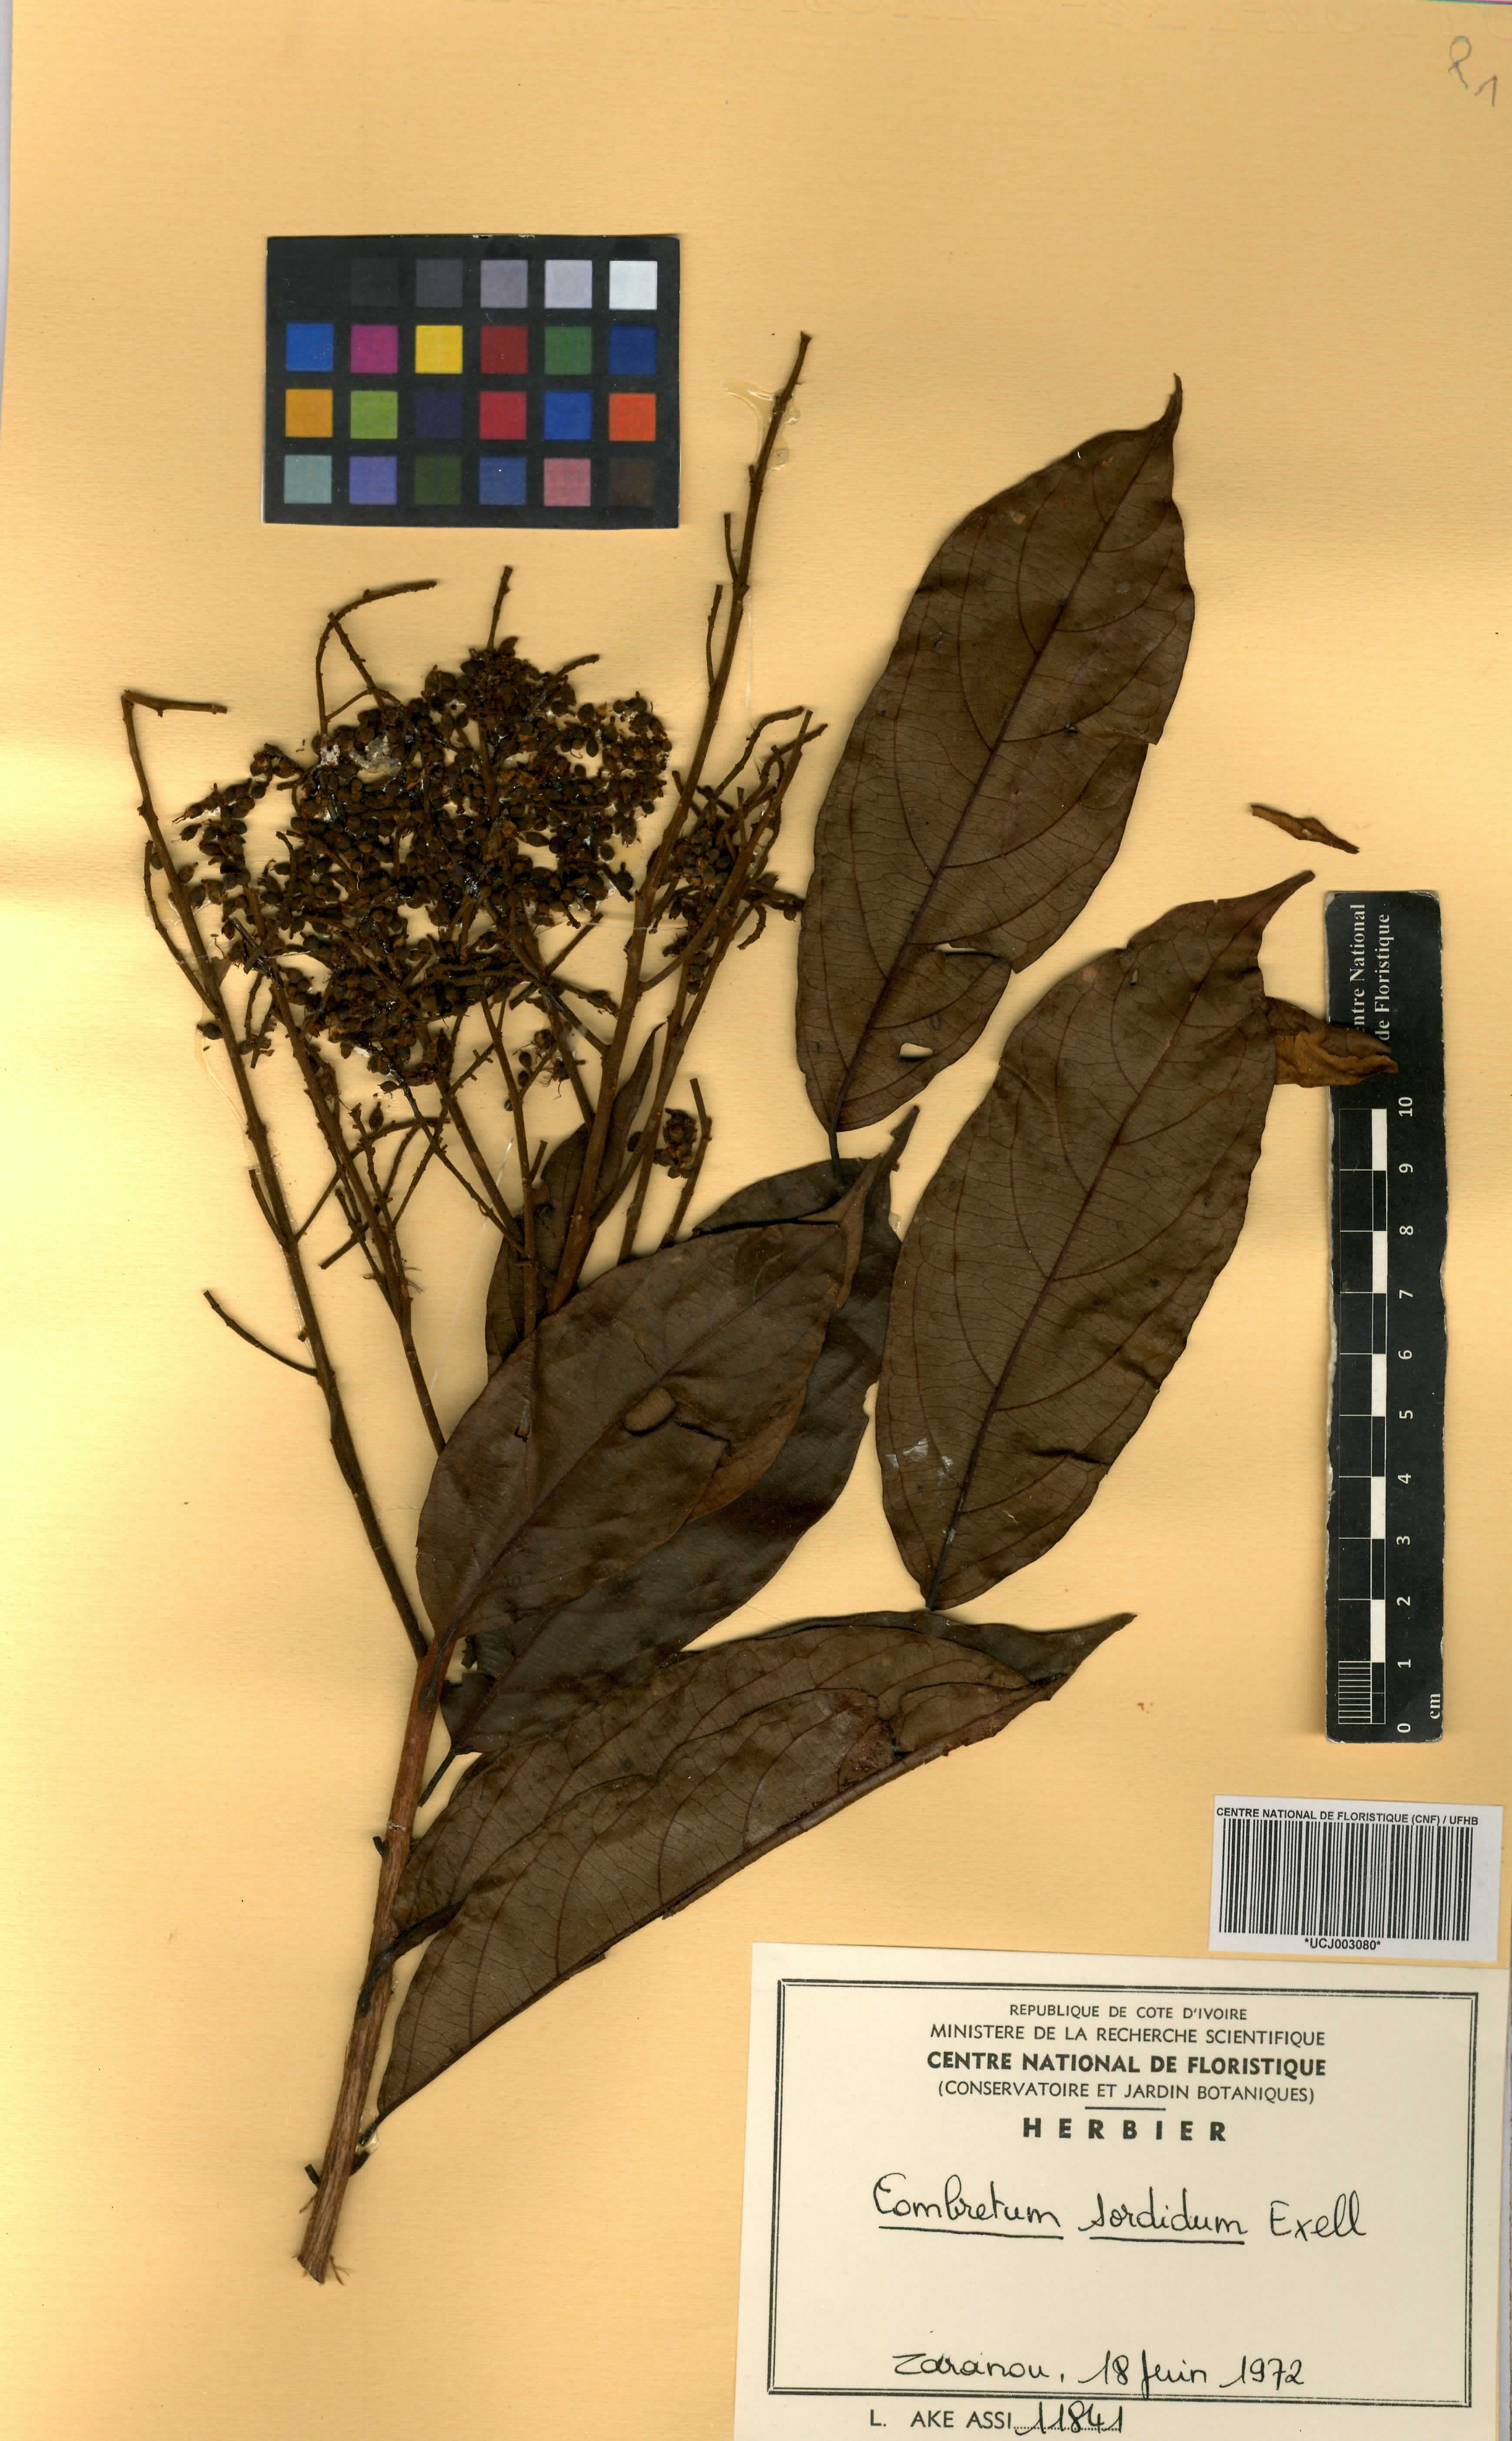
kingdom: Plantae
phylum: Tracheophyta
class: Magnoliopsida
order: Myrtales
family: Combretaceae
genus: Combretum
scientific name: Combretum sordidum
